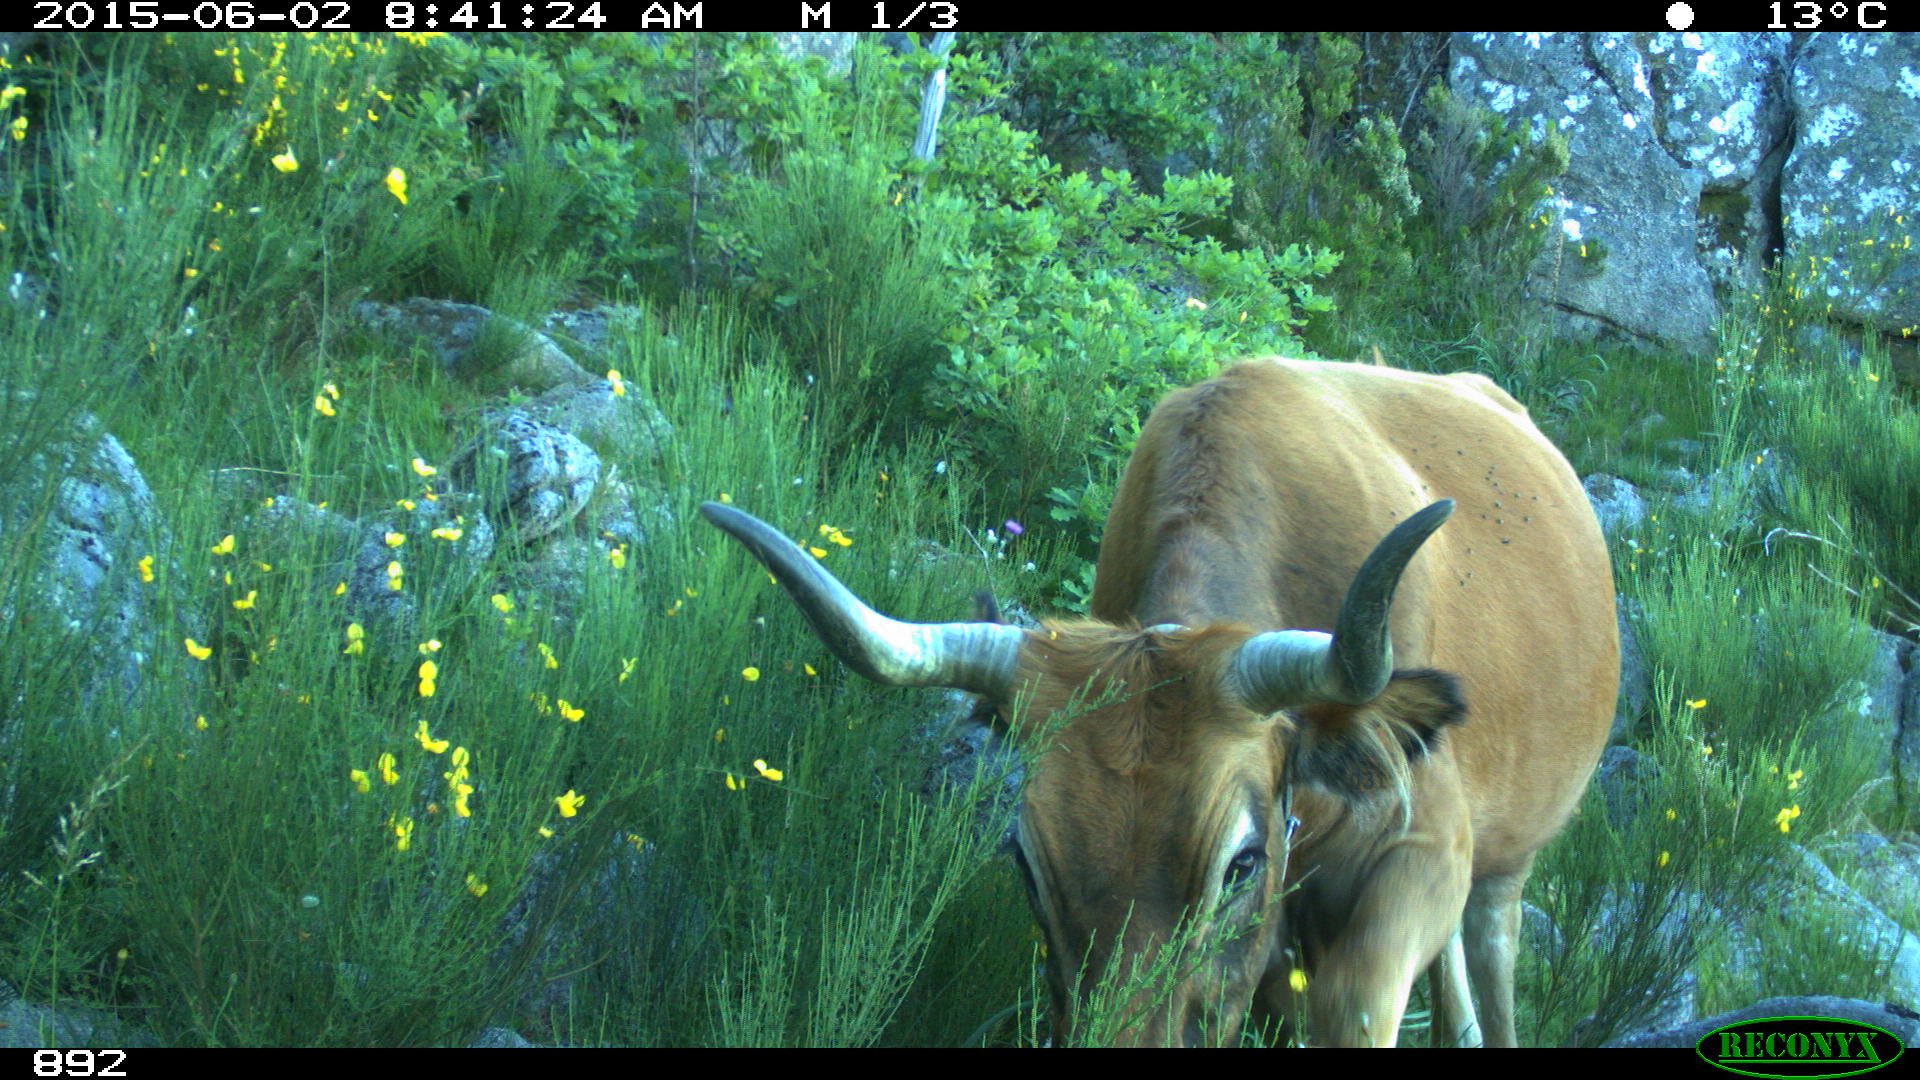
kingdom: Animalia
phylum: Chordata
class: Mammalia
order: Artiodactyla
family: Bovidae
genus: Bos
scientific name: Bos taurus
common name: Domesticated cattle
